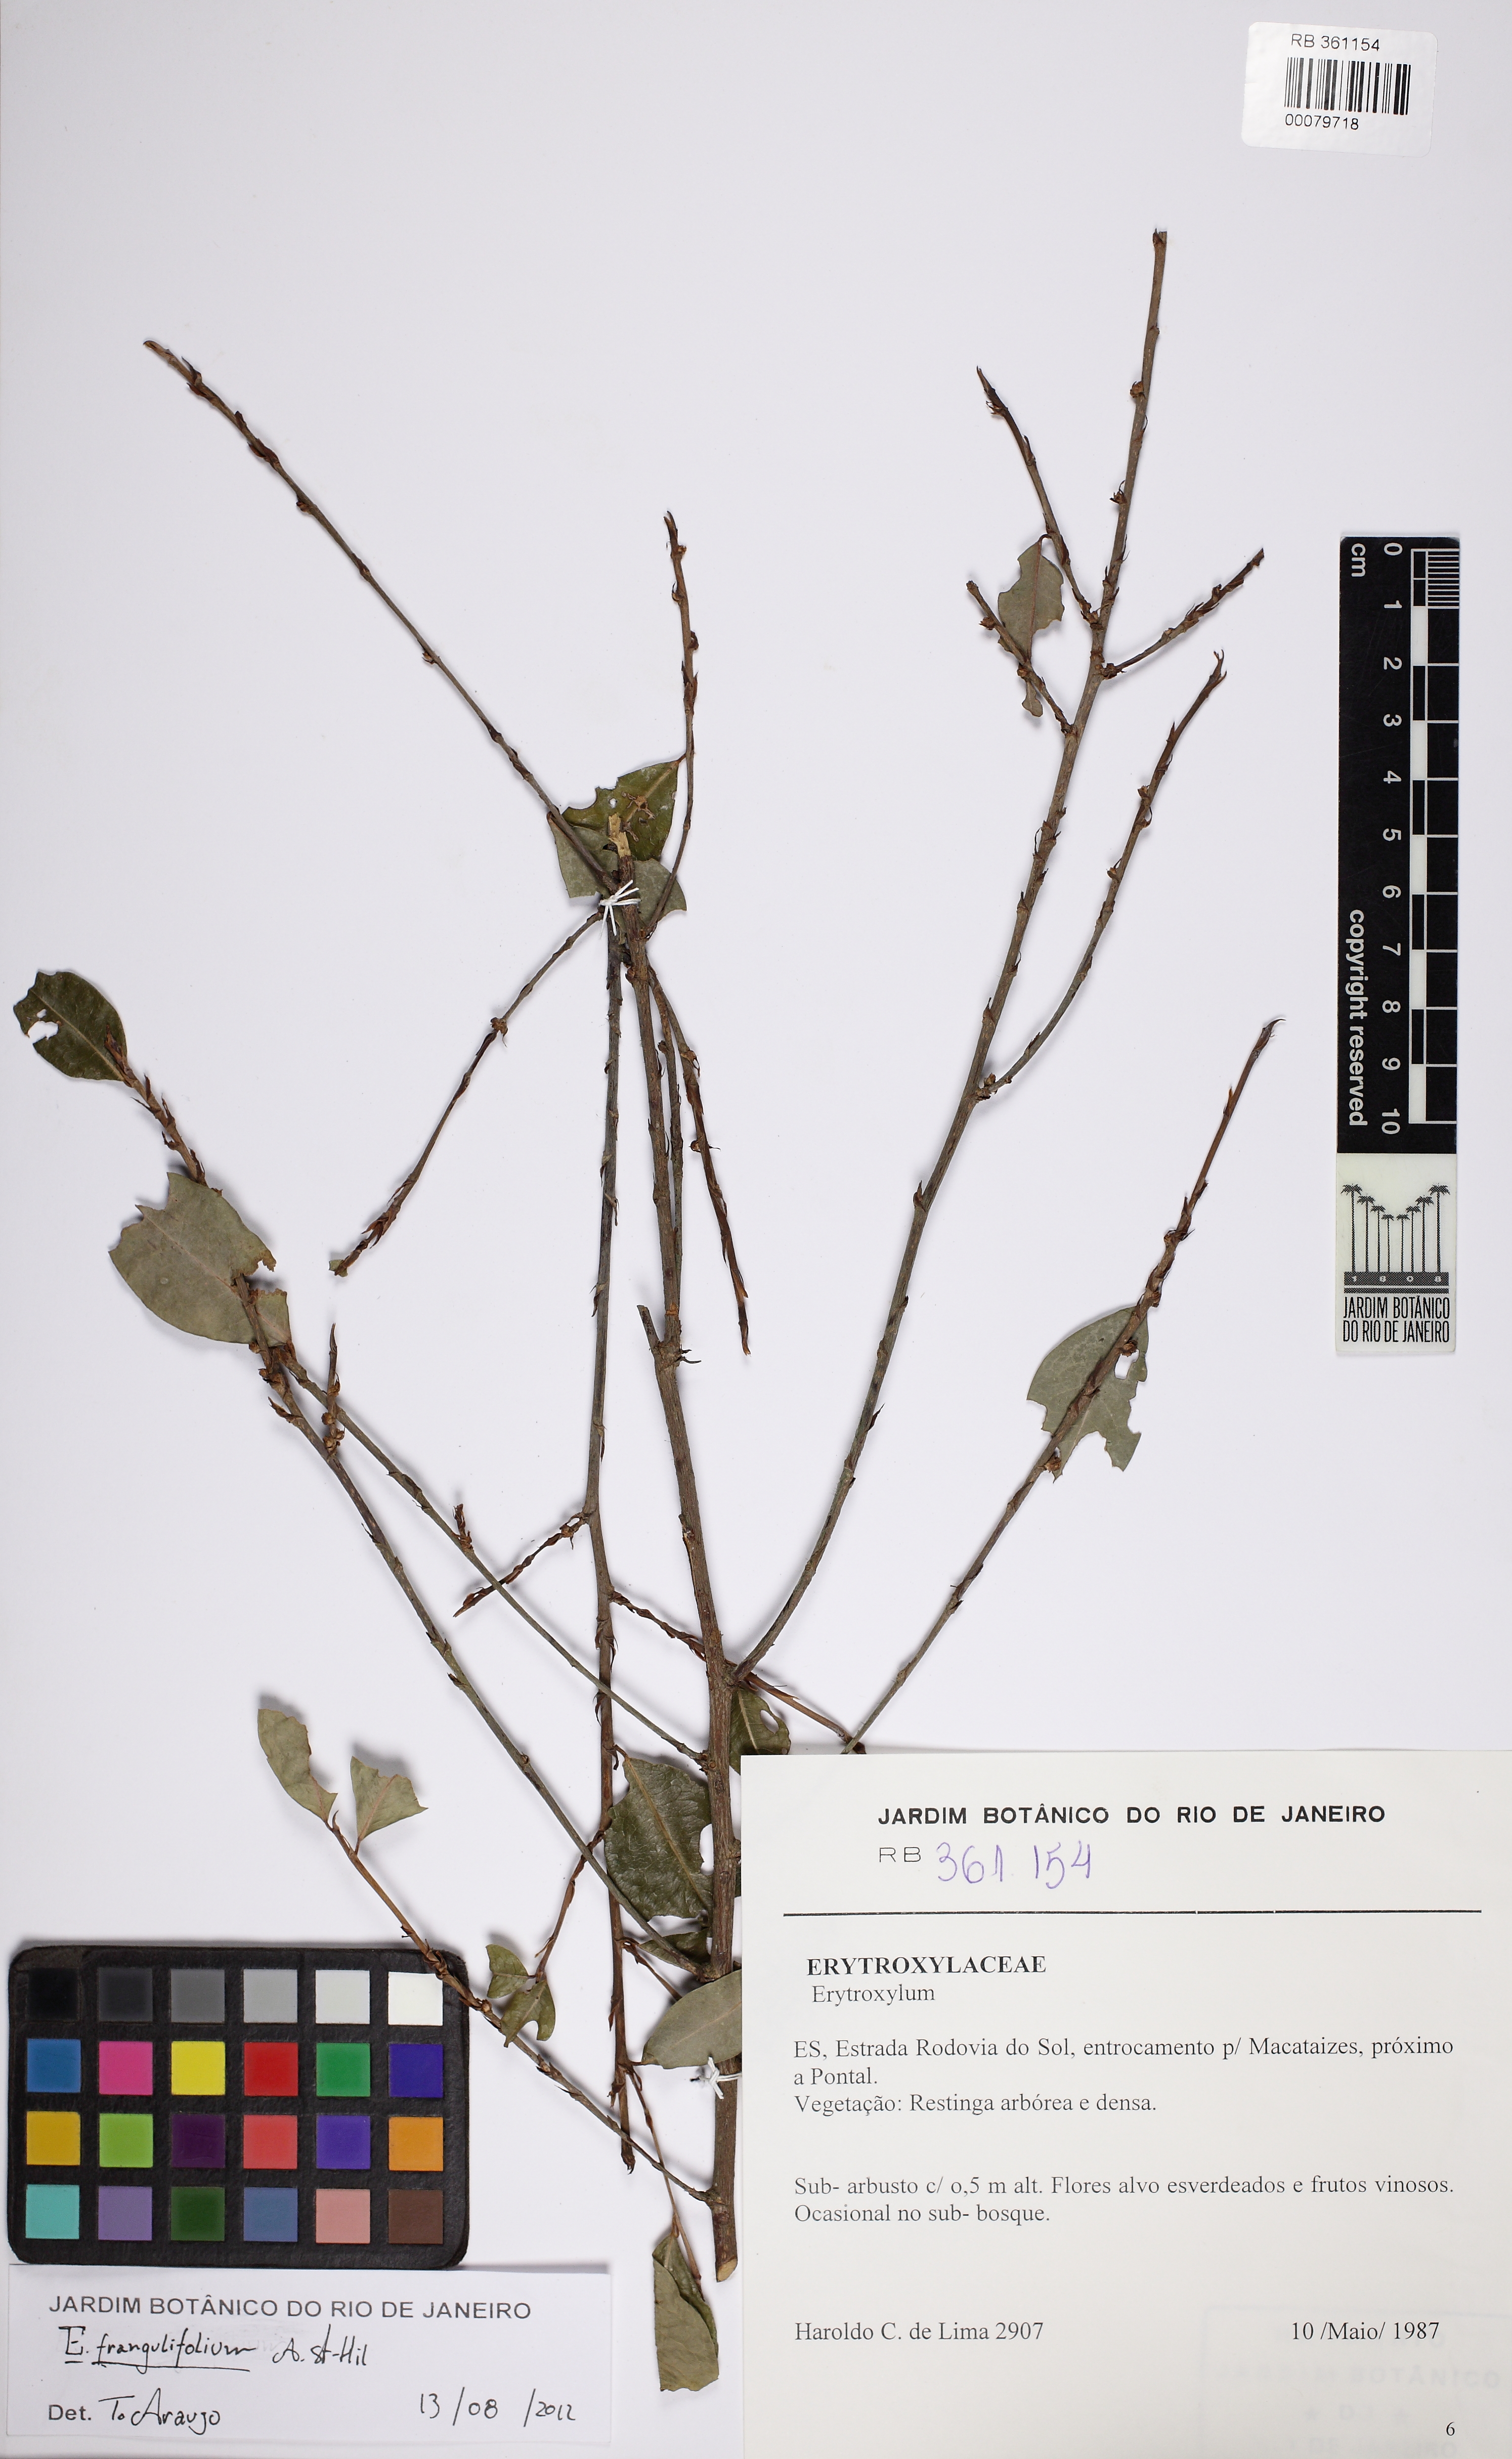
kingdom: Plantae
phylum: Tracheophyta
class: Magnoliopsida
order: Malpighiales
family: Erythroxylaceae
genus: Erythroxylum
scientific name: Erythroxylum frangulifolium
